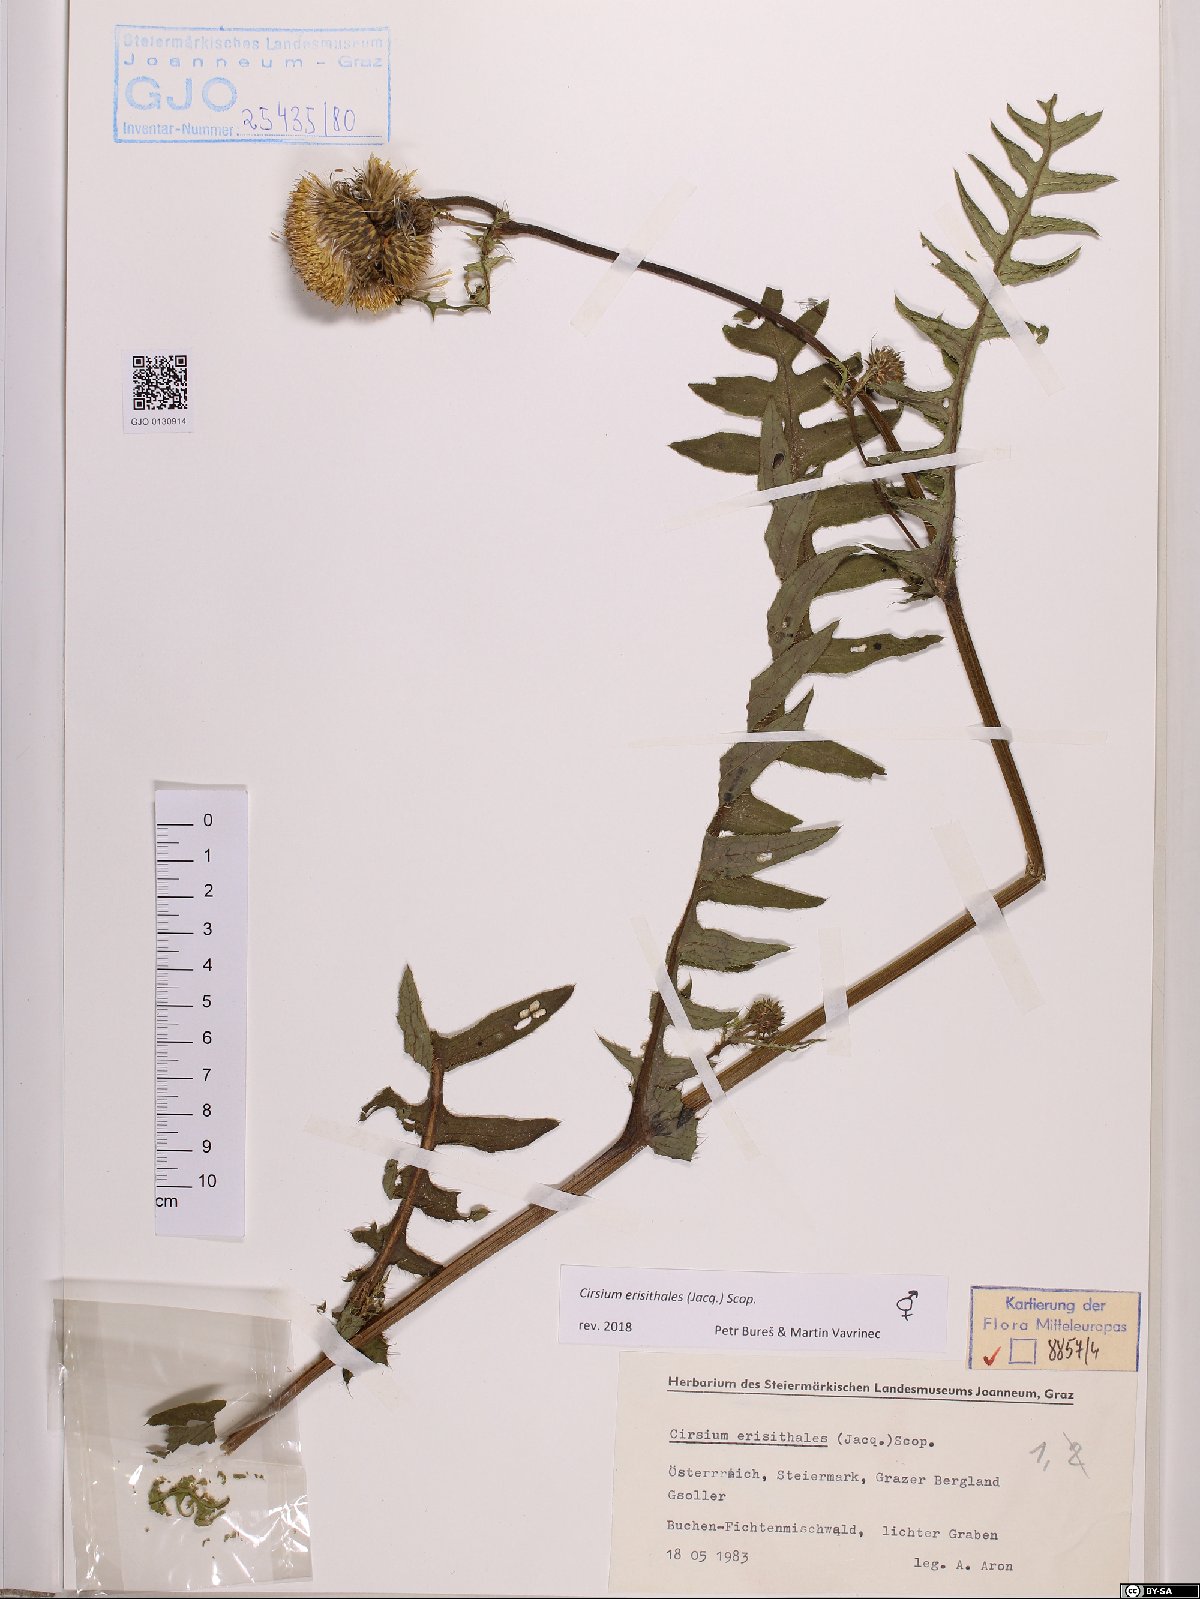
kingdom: Plantae
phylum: Tracheophyta
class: Magnoliopsida
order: Asterales
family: Asteraceae
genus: Cirsium
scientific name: Cirsium erisithales
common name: Yellow thistle
